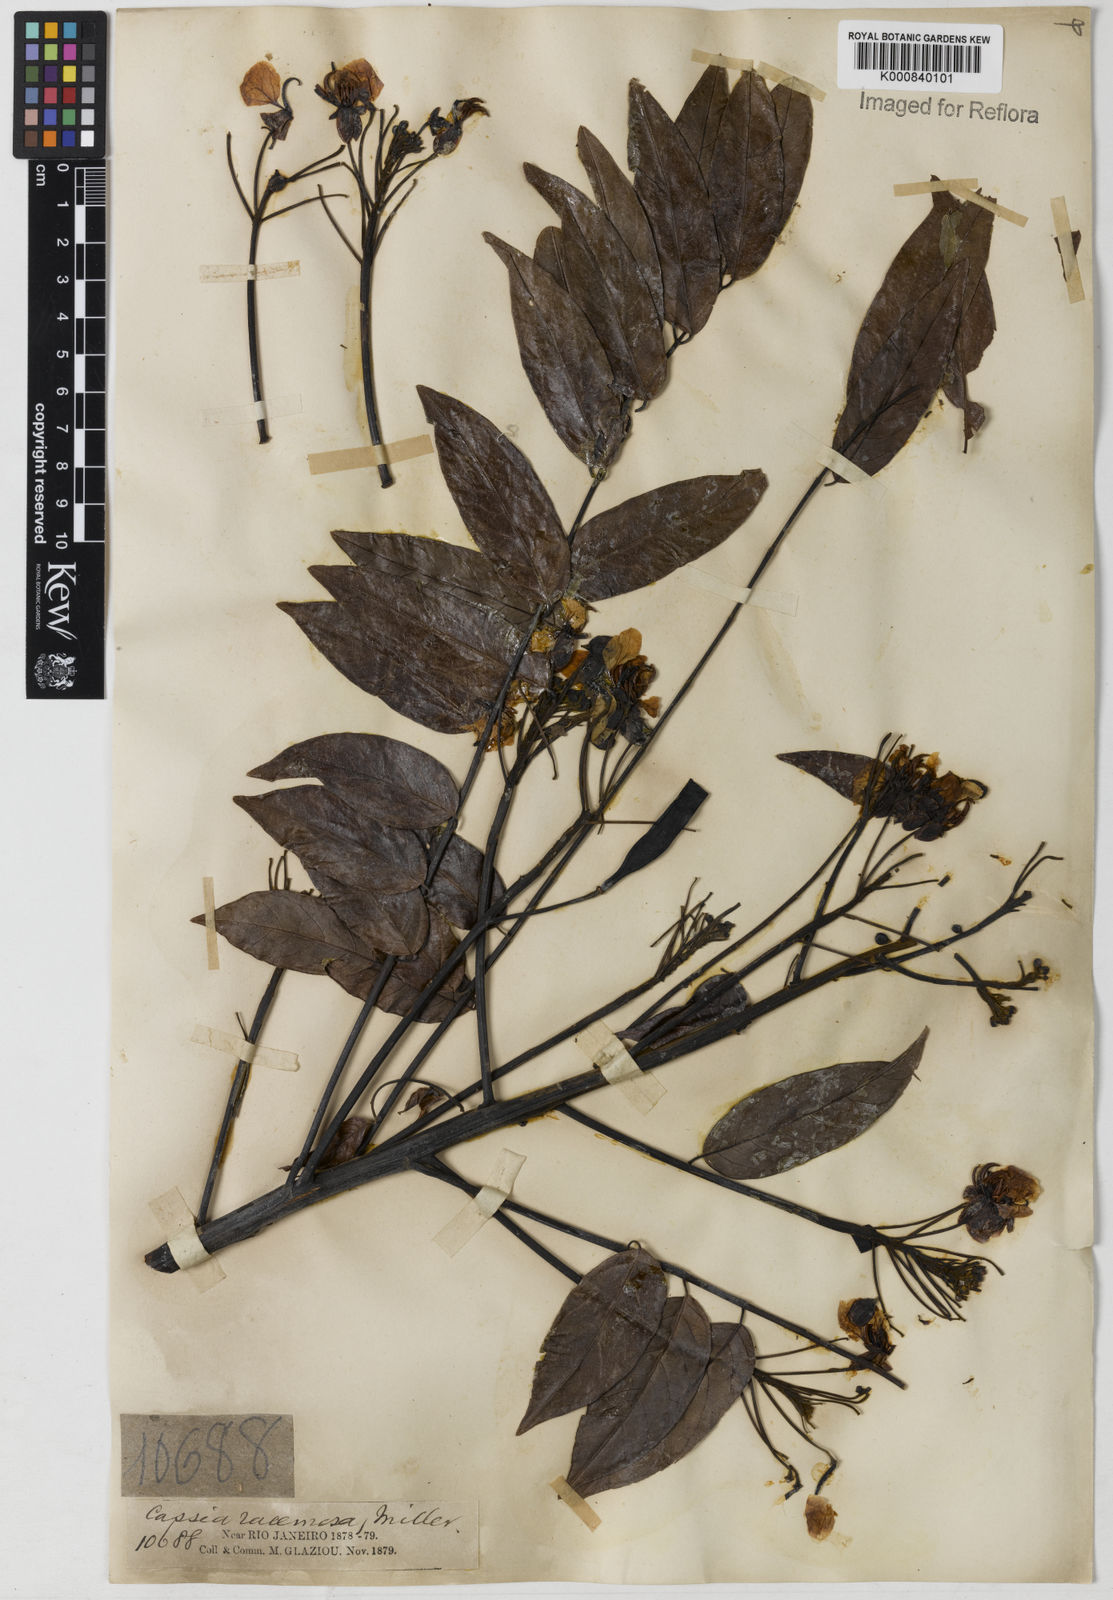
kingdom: Plantae
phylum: Tracheophyta
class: Magnoliopsida
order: Fabales
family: Fabaceae
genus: Senna
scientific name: Senna silvestris
